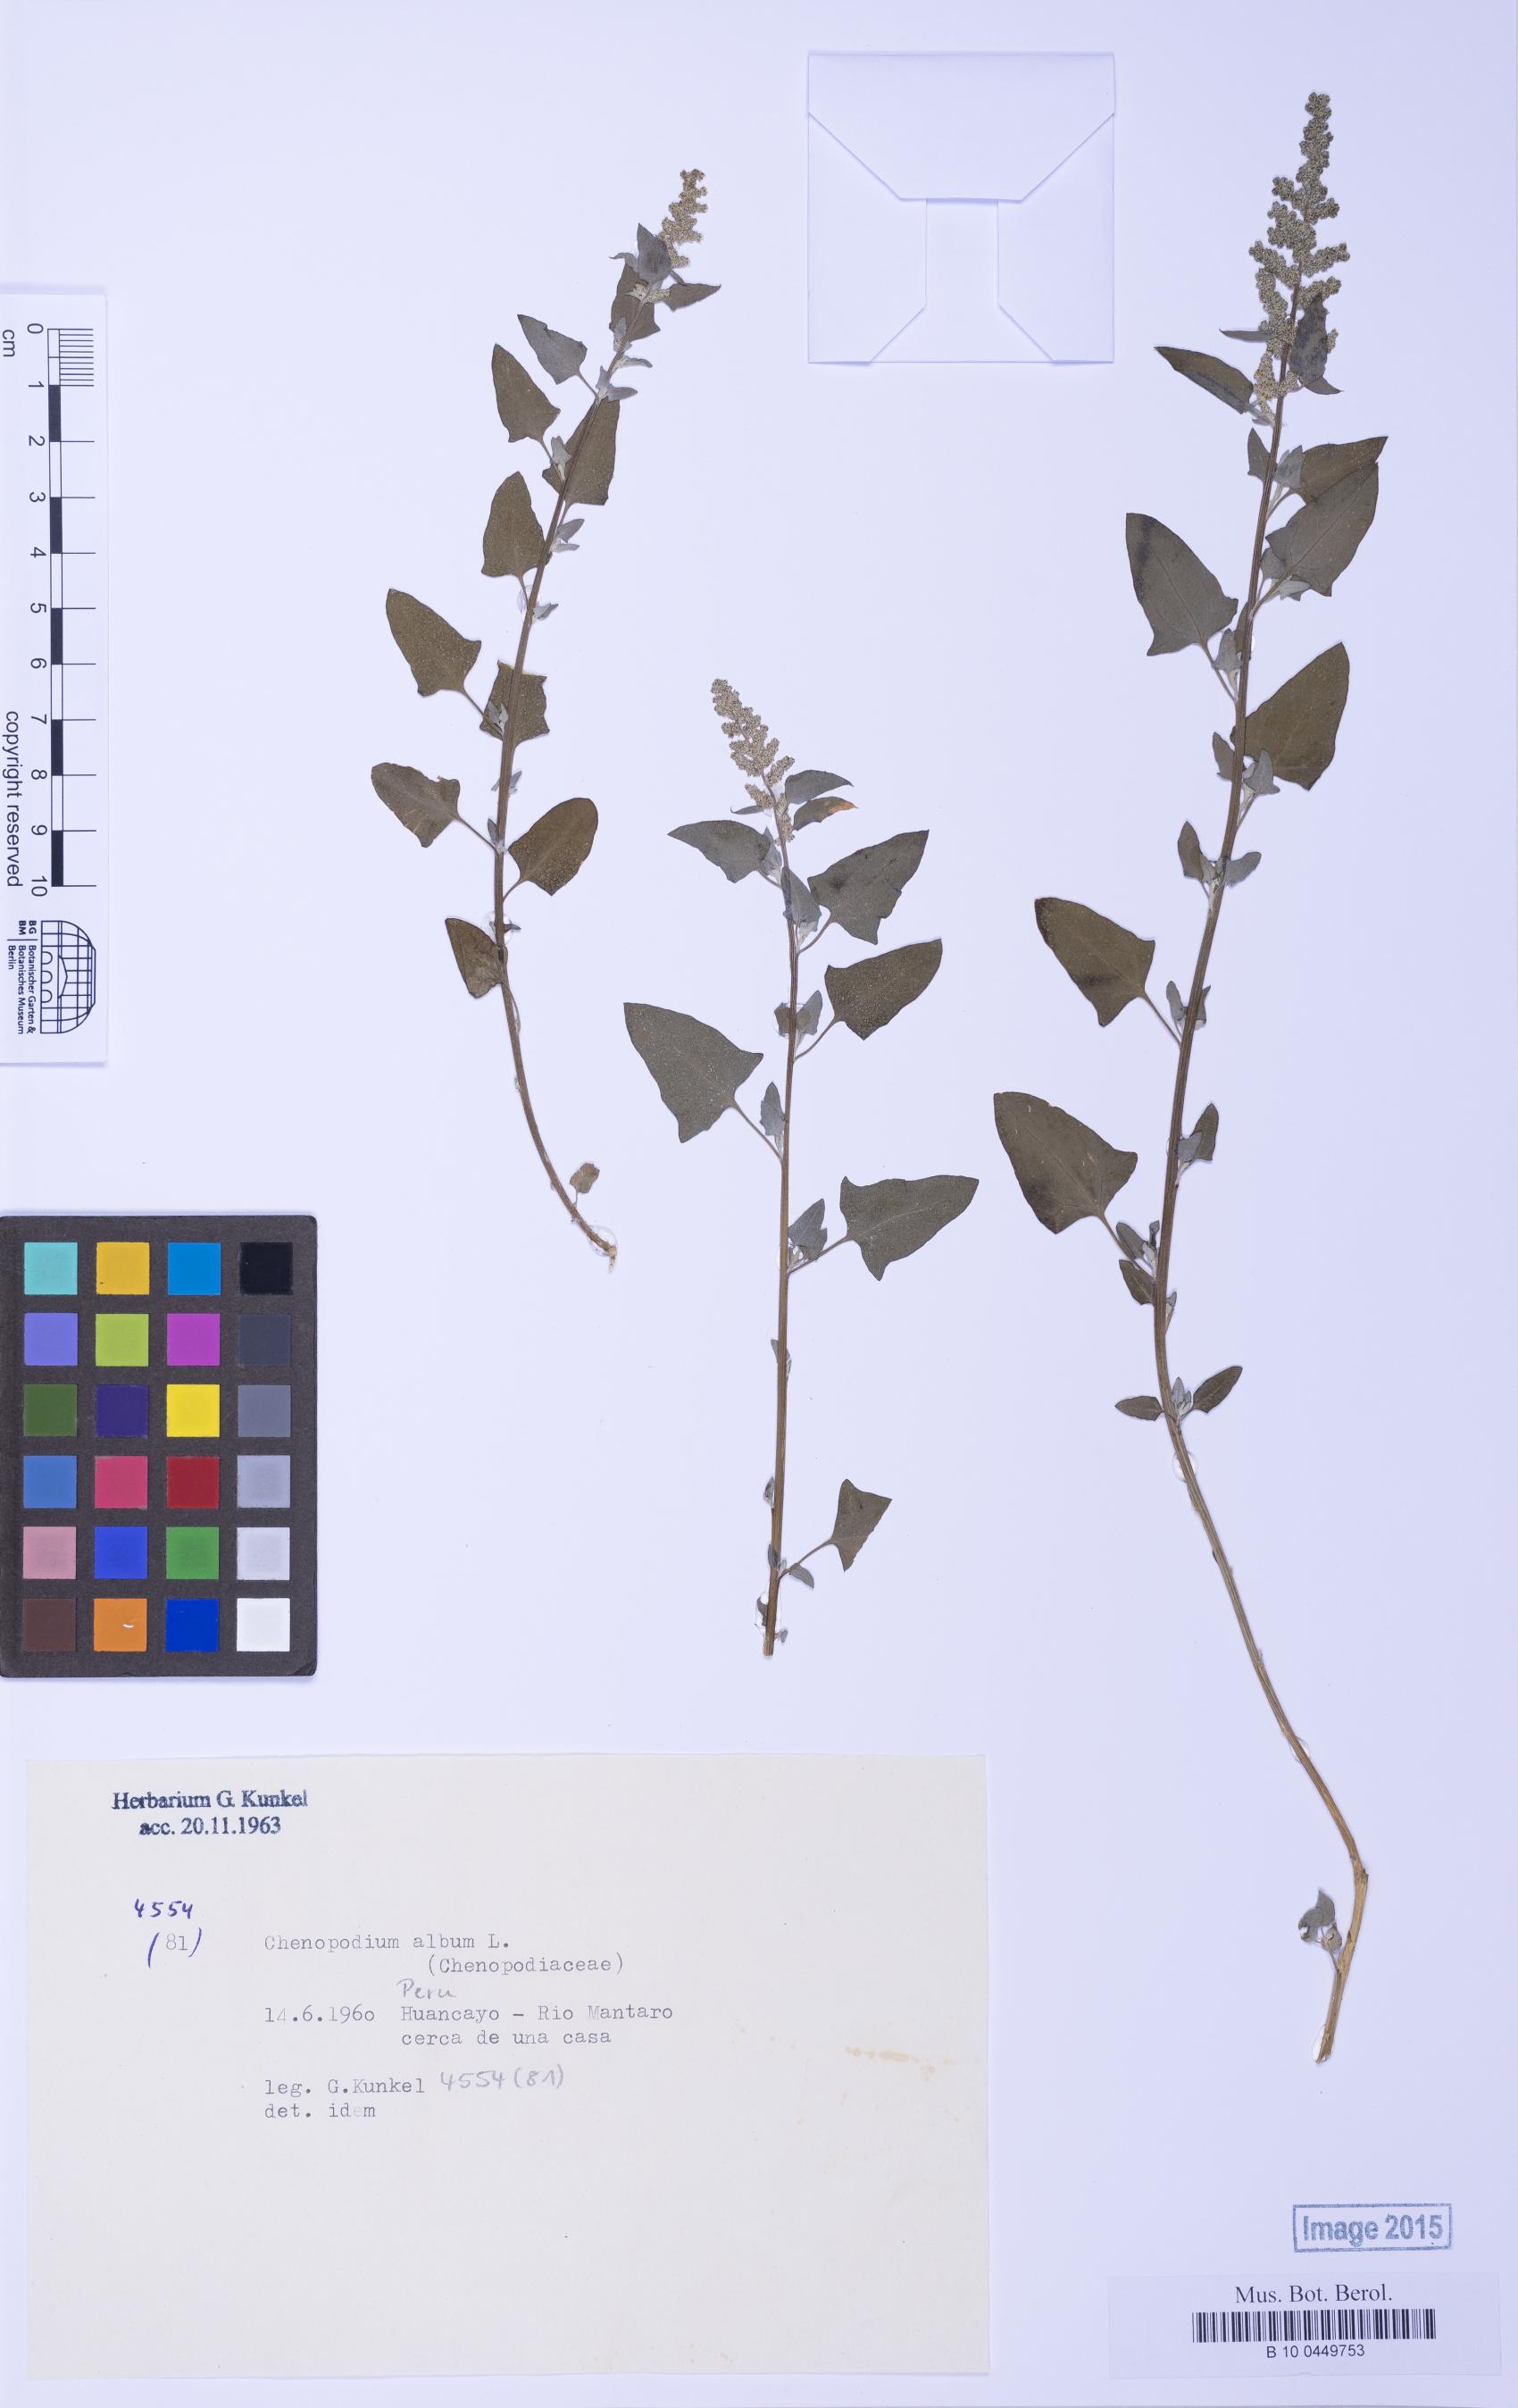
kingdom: Plantae
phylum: Tracheophyta
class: Magnoliopsida
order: Caryophyllales
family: Amaranthaceae
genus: Chenopodium
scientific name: Chenopodium
